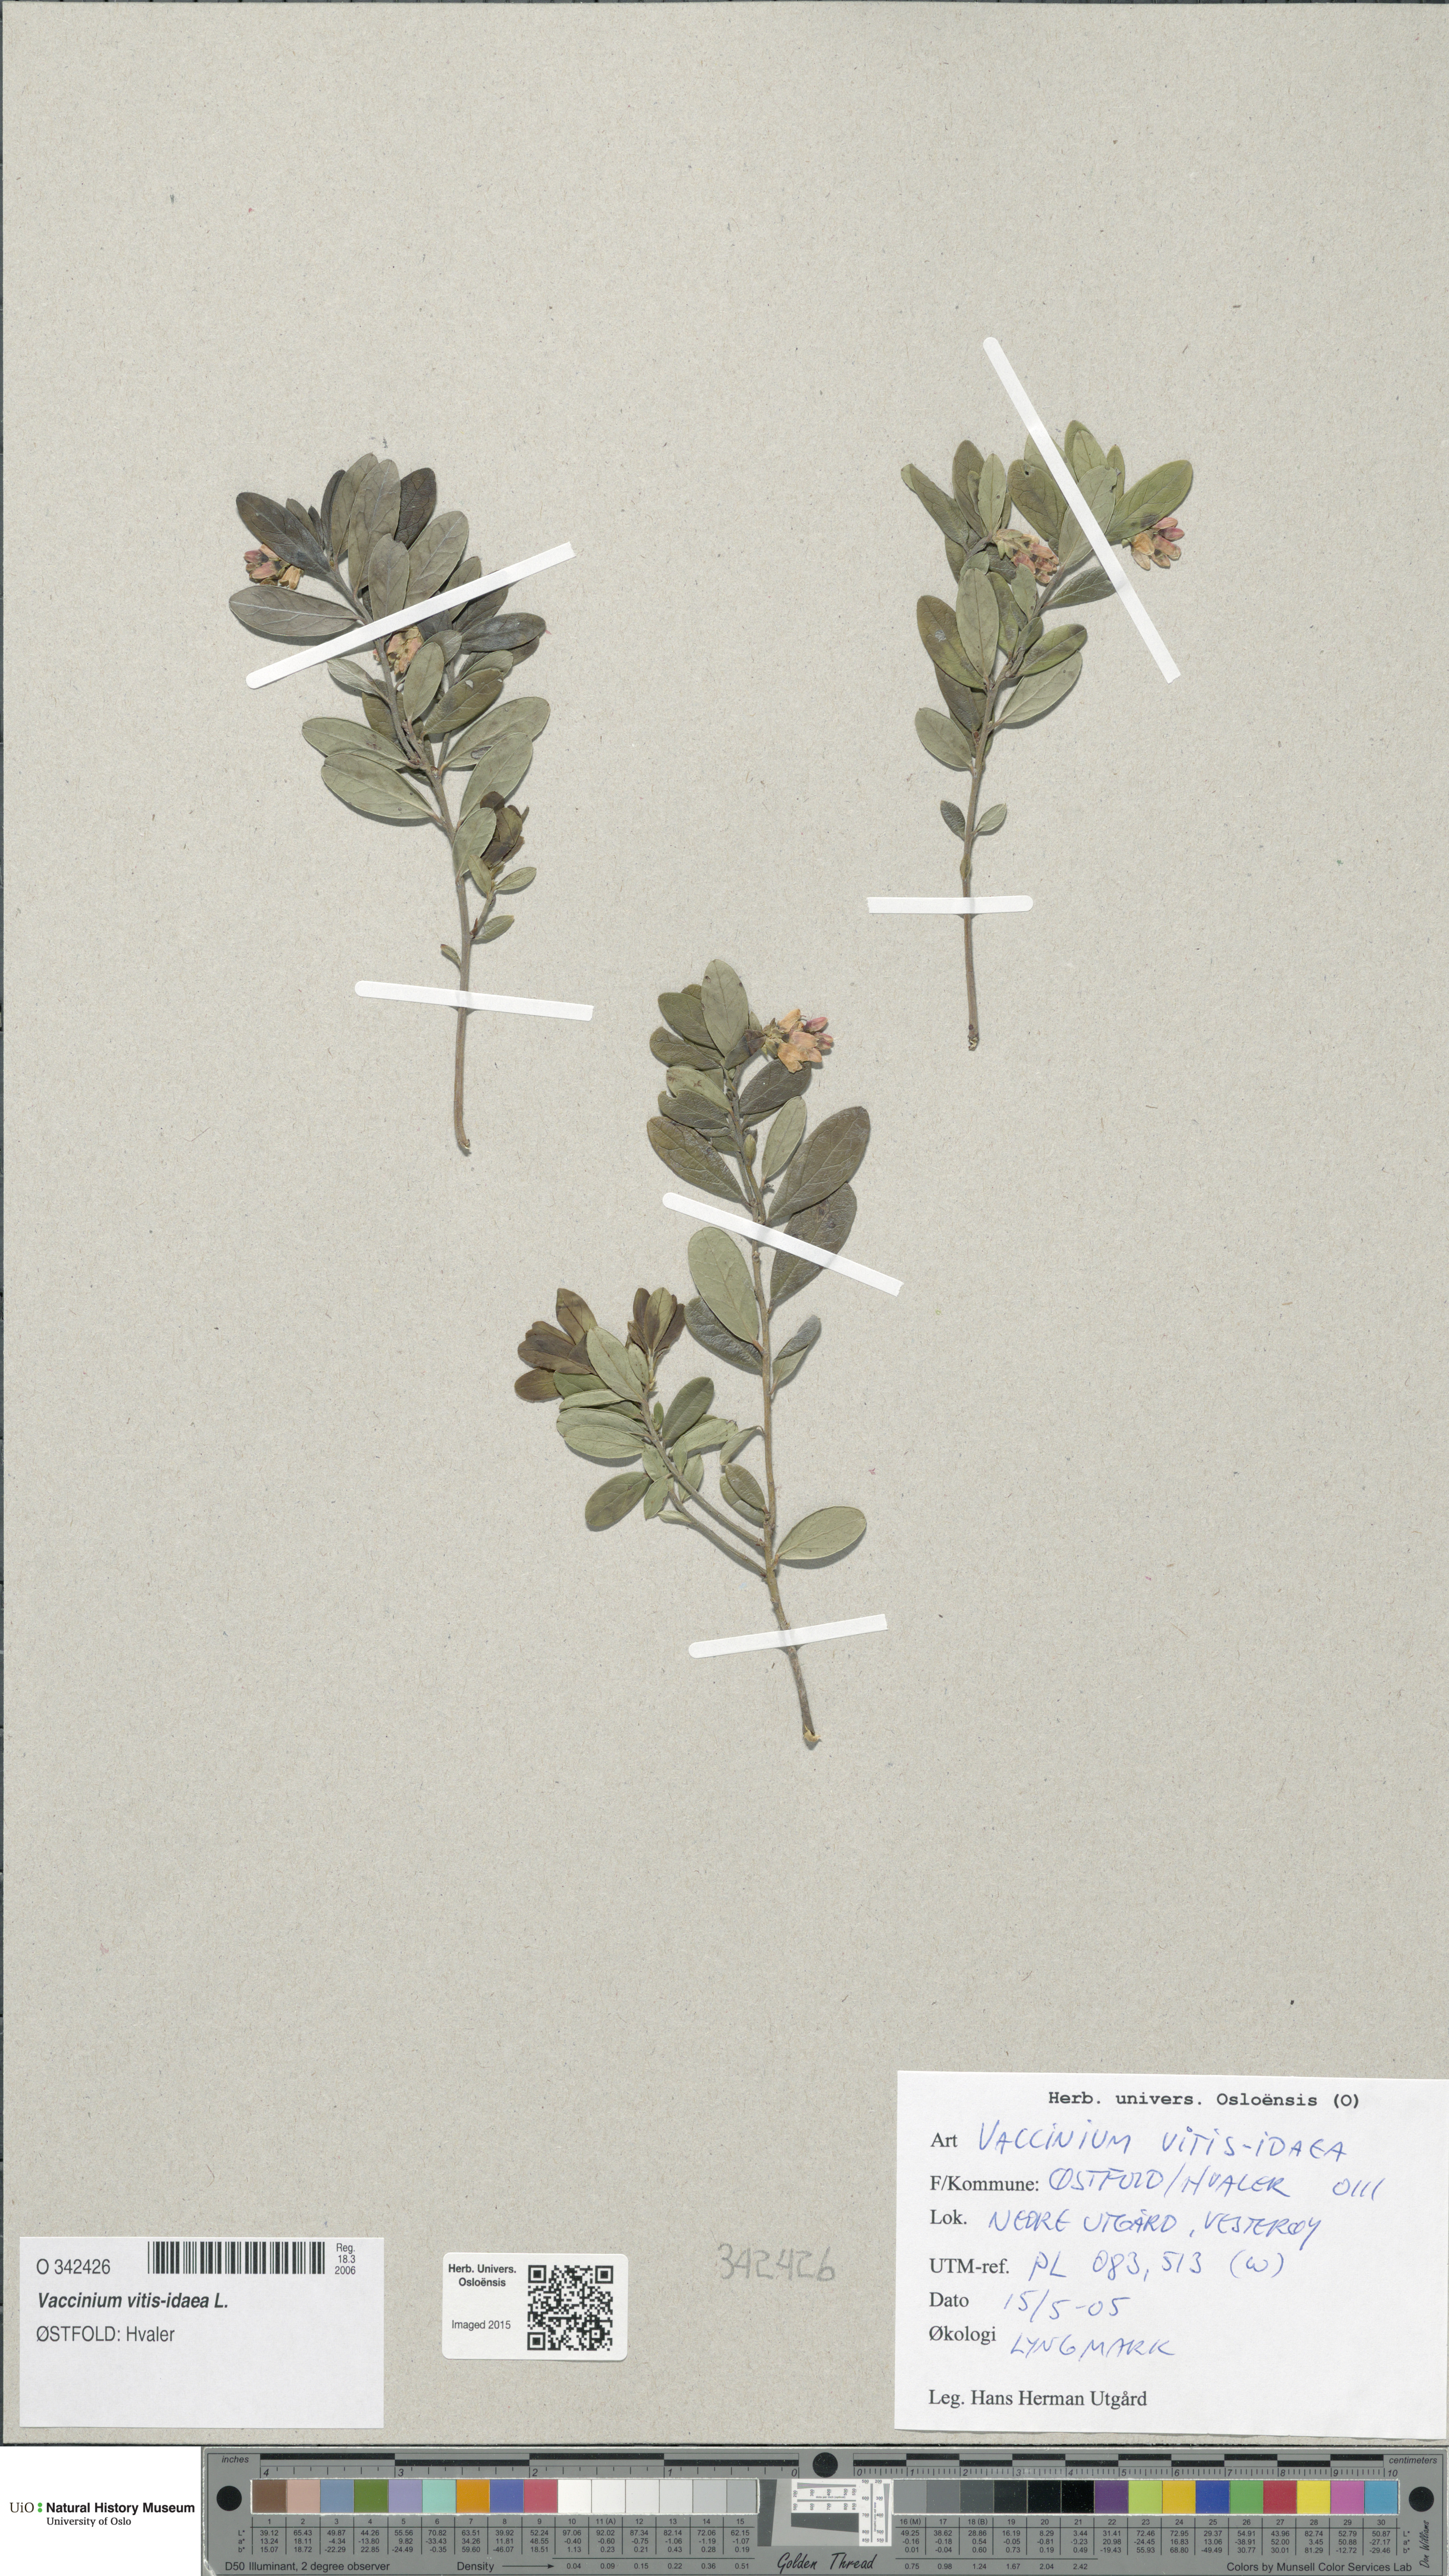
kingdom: Plantae
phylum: Tracheophyta
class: Magnoliopsida
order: Ericales
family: Ericaceae
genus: Vaccinium
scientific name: Vaccinium vitis-idaea
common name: Cowberry
